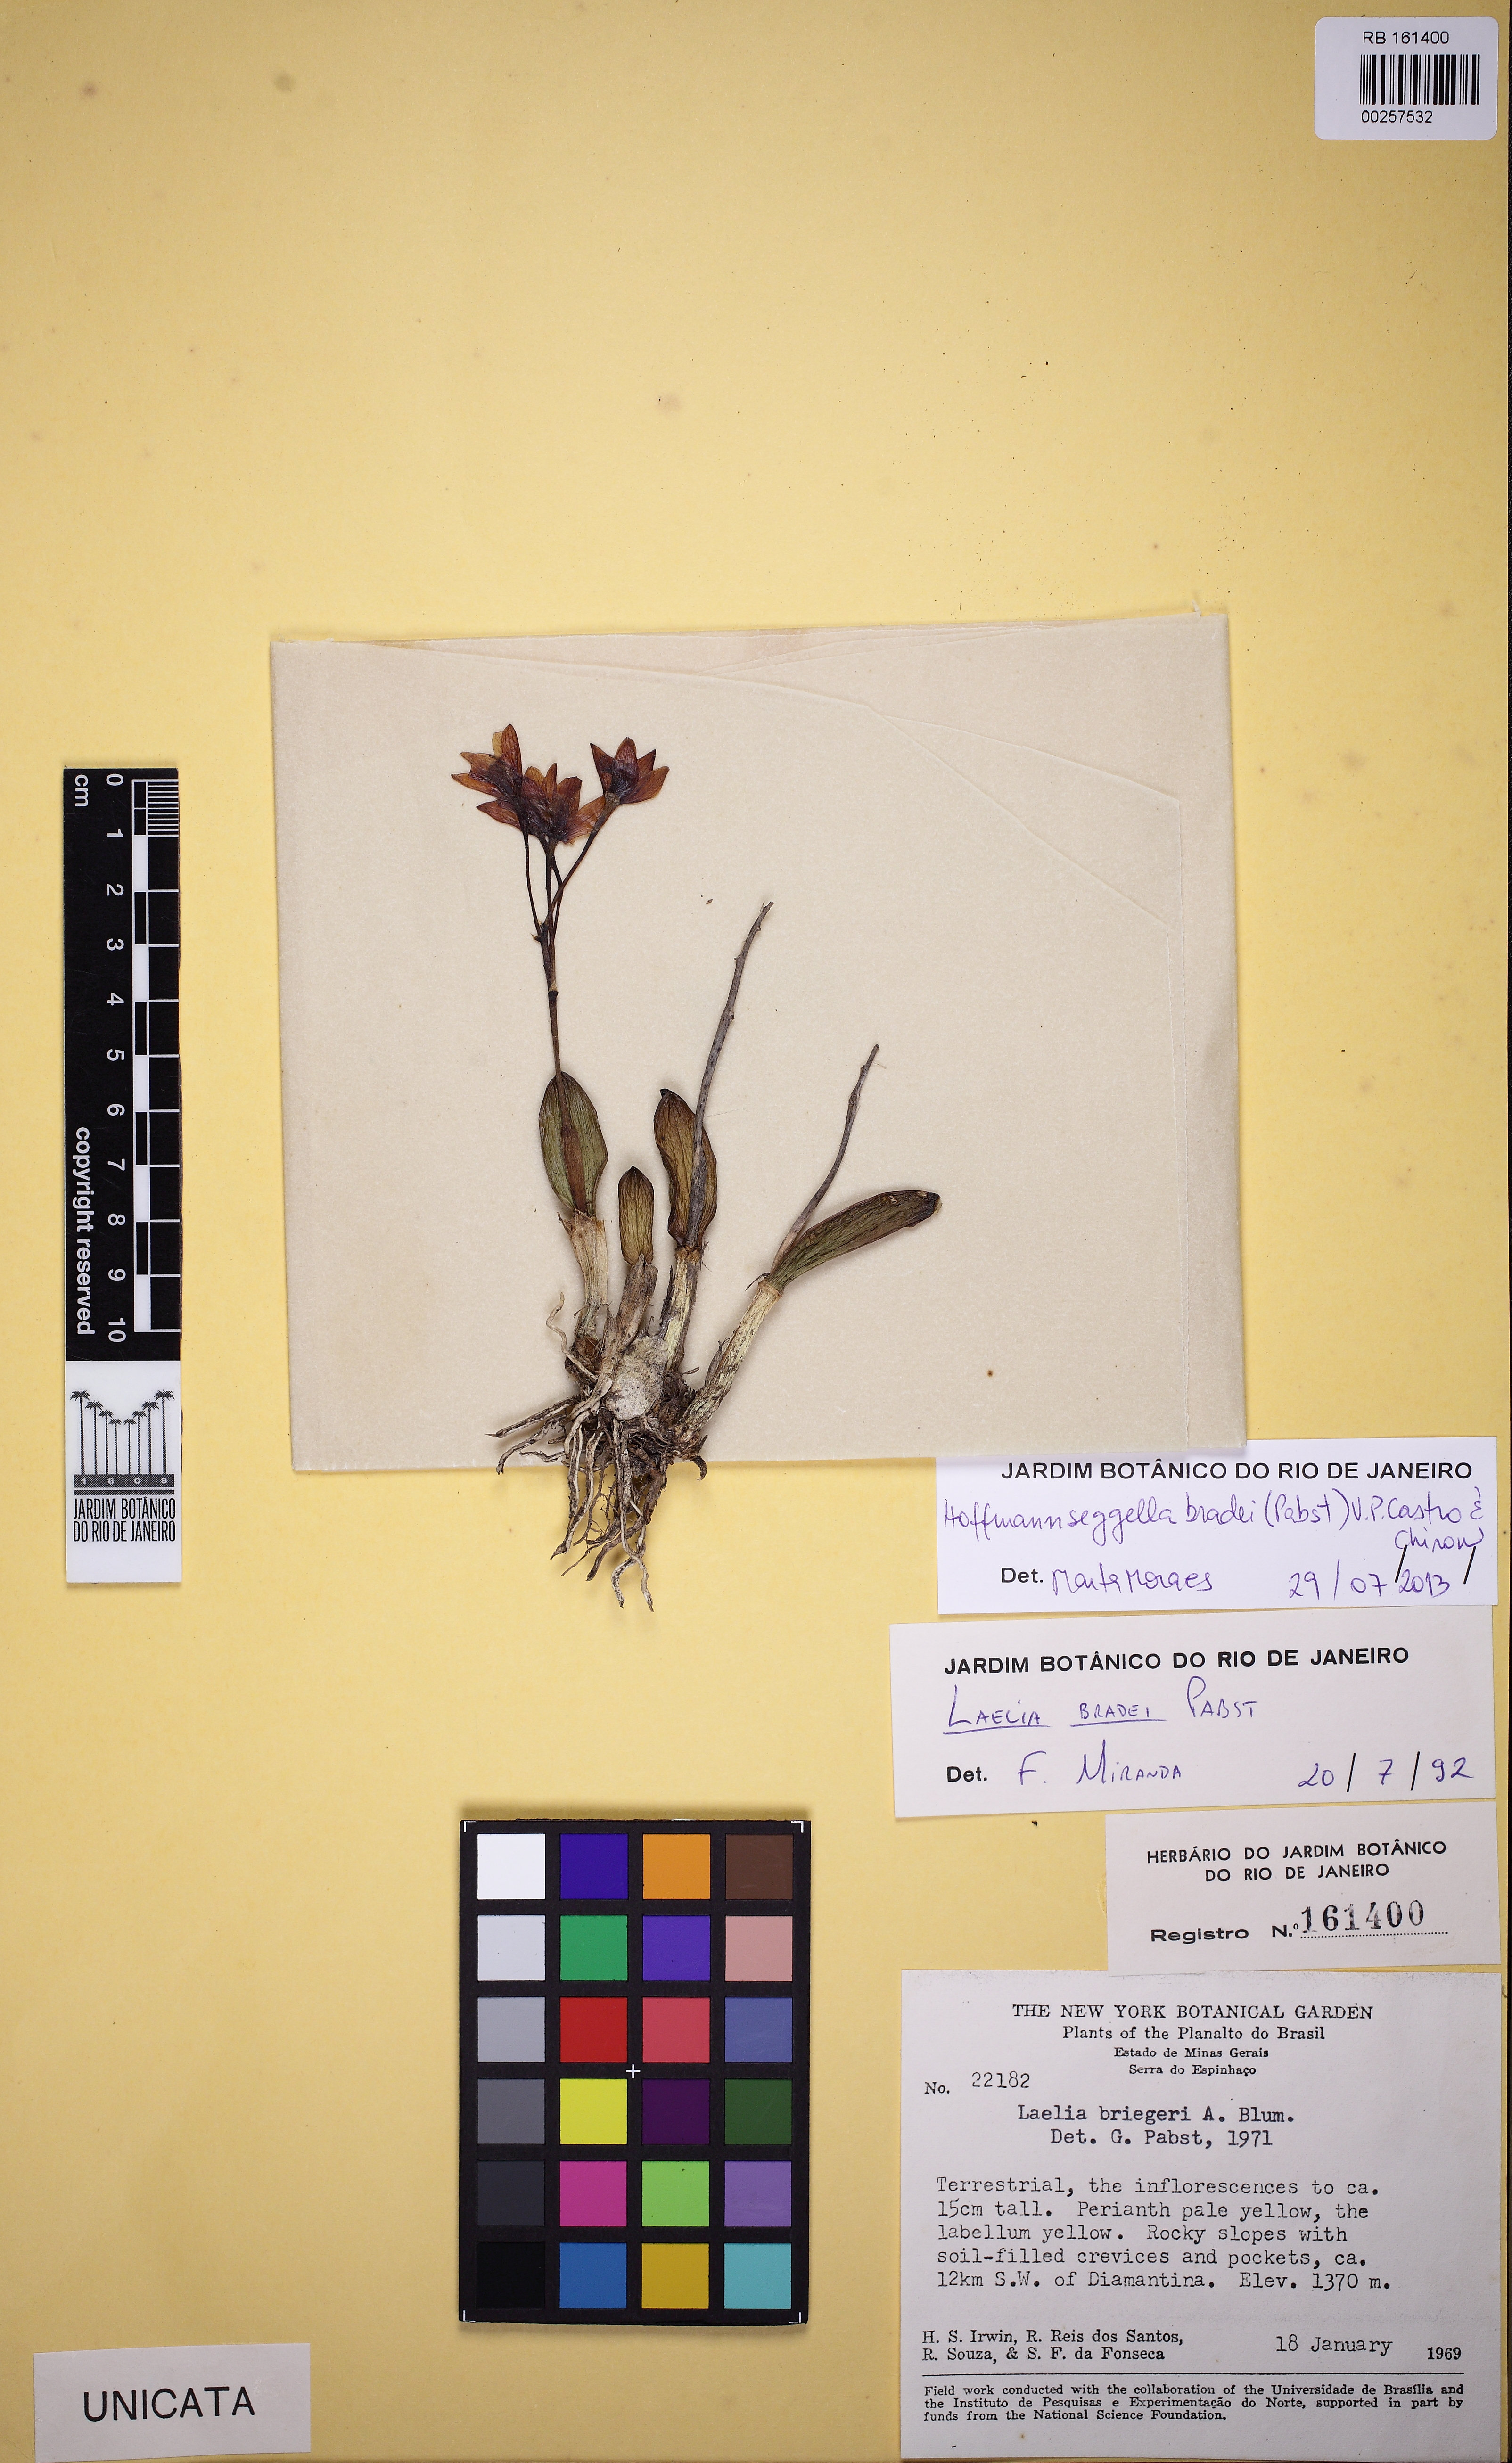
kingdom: Plantae
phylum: Tracheophyta
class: Liliopsida
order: Asparagales
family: Orchidaceae
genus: Cattleya
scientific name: Cattleya bradei
